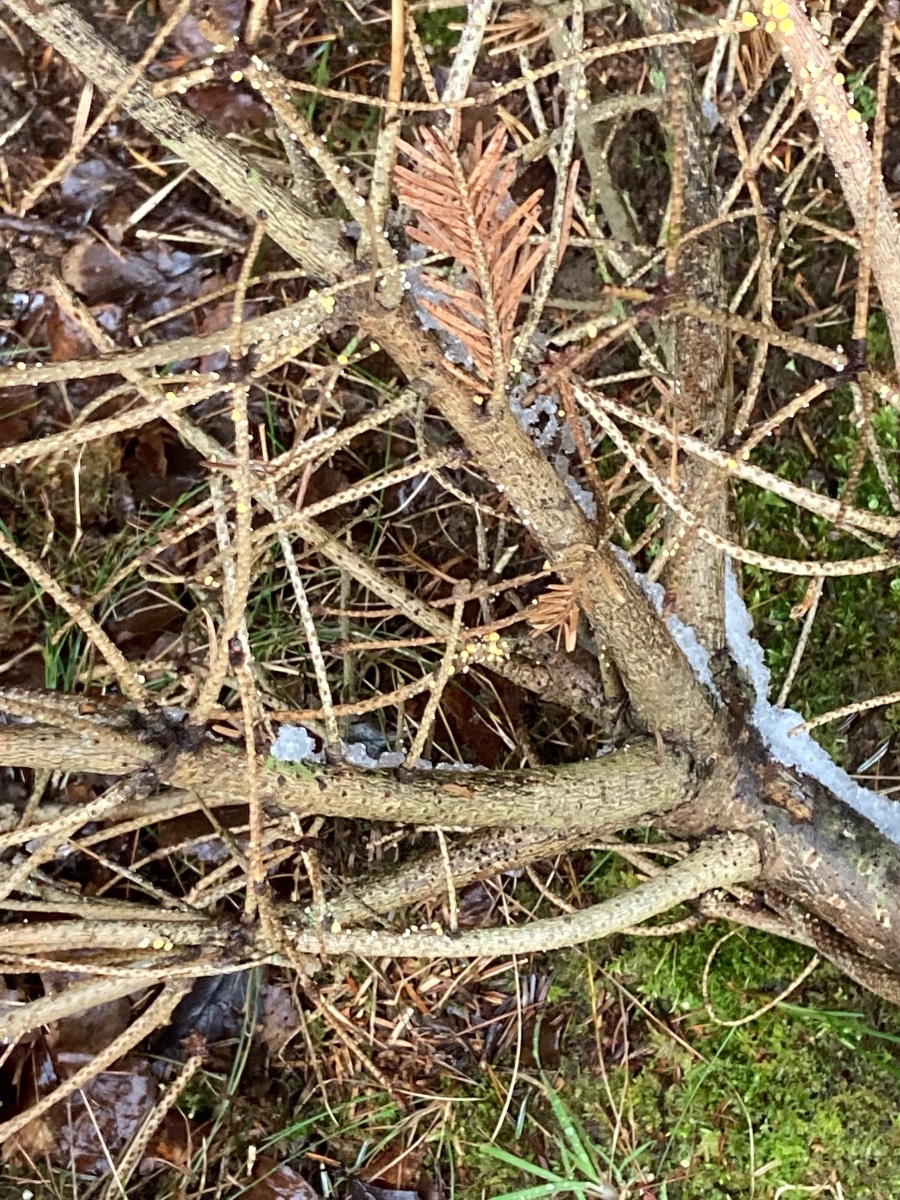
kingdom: Fungi
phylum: Ascomycota
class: Leotiomycetes
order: Helotiales
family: Lachnaceae
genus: Perrotia
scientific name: Perrotia gallica
